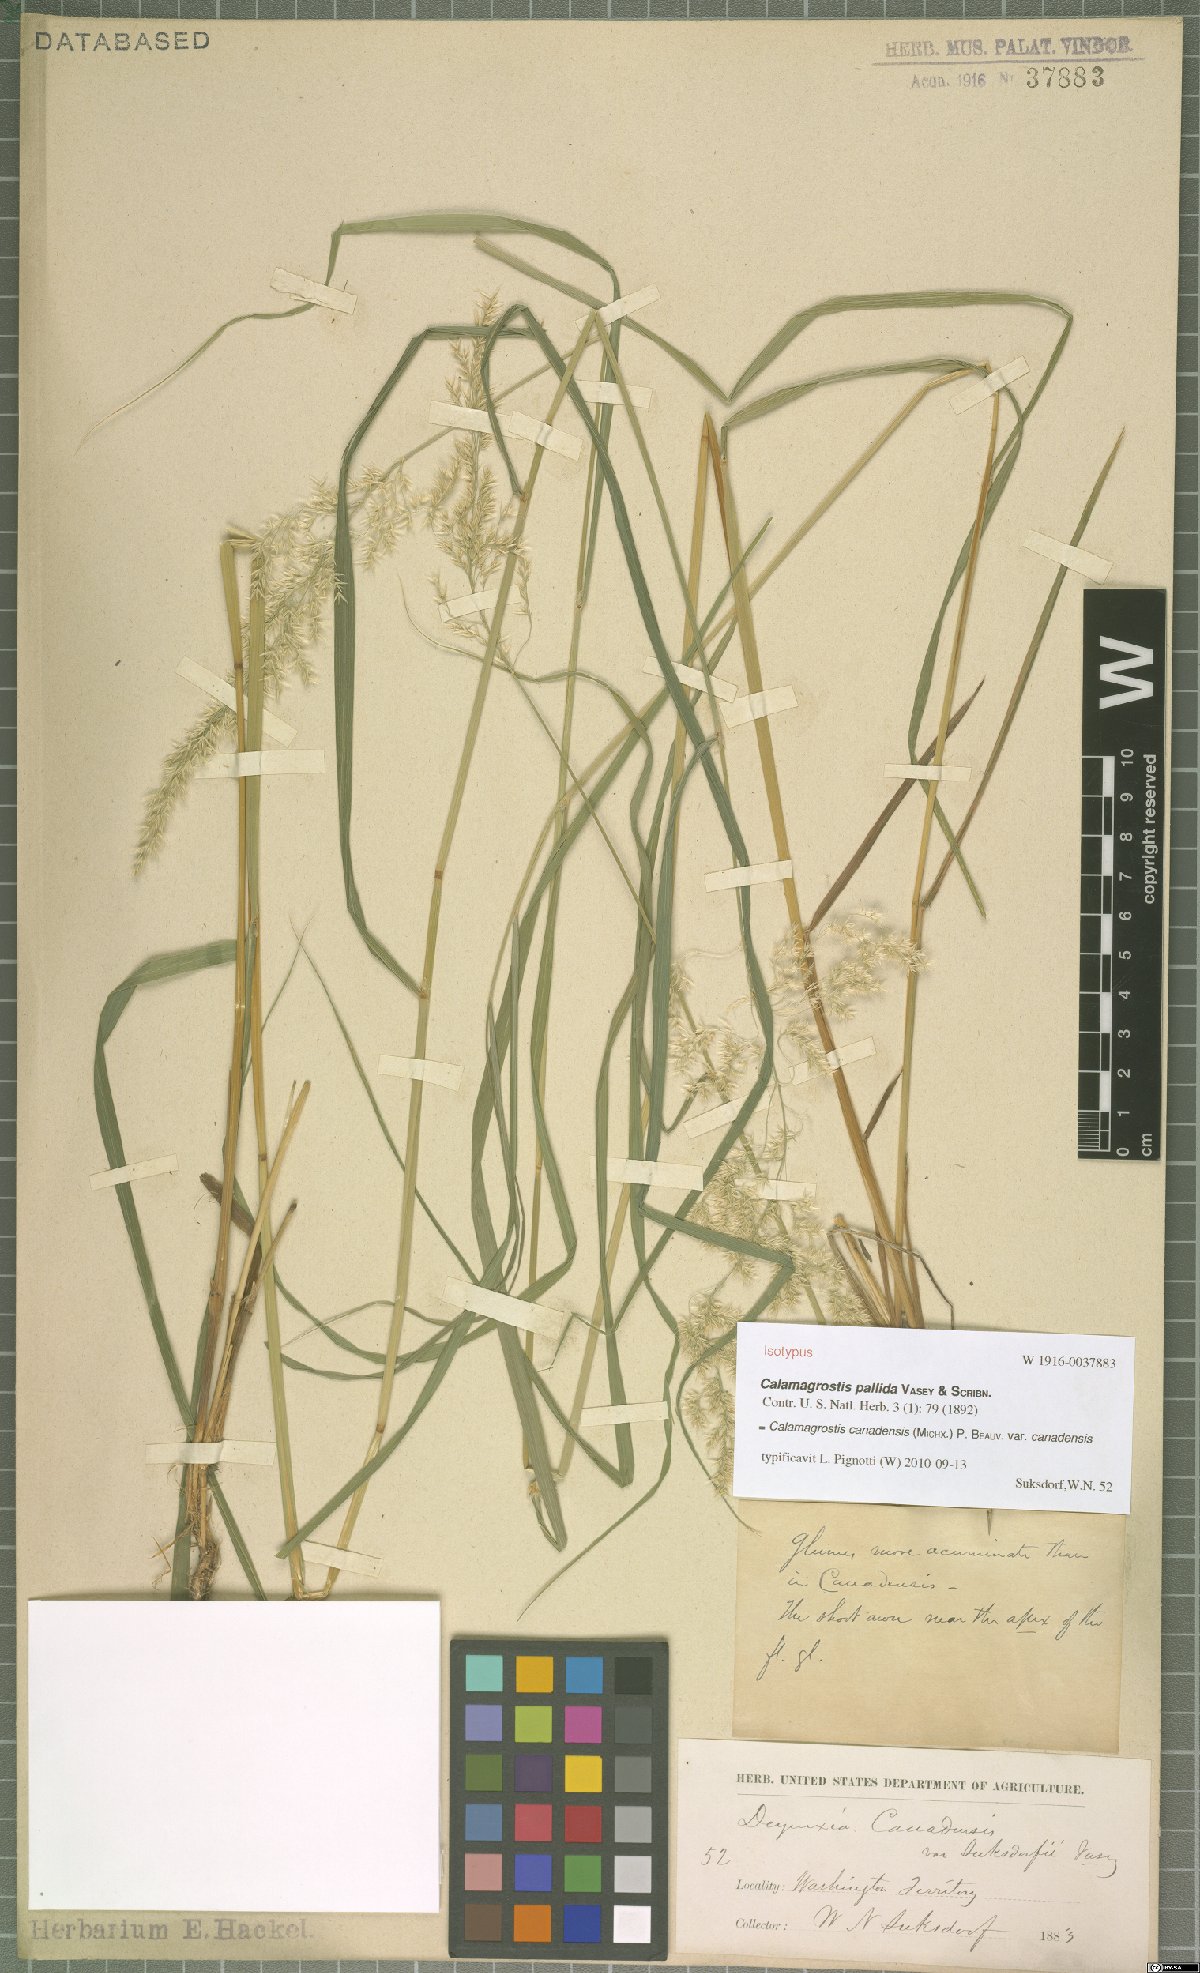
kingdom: Plantae
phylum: Tracheophyta
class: Liliopsida
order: Poales
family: Poaceae
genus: Calamagrostis
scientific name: Calamagrostis canadensis
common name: Canada bluejoint
